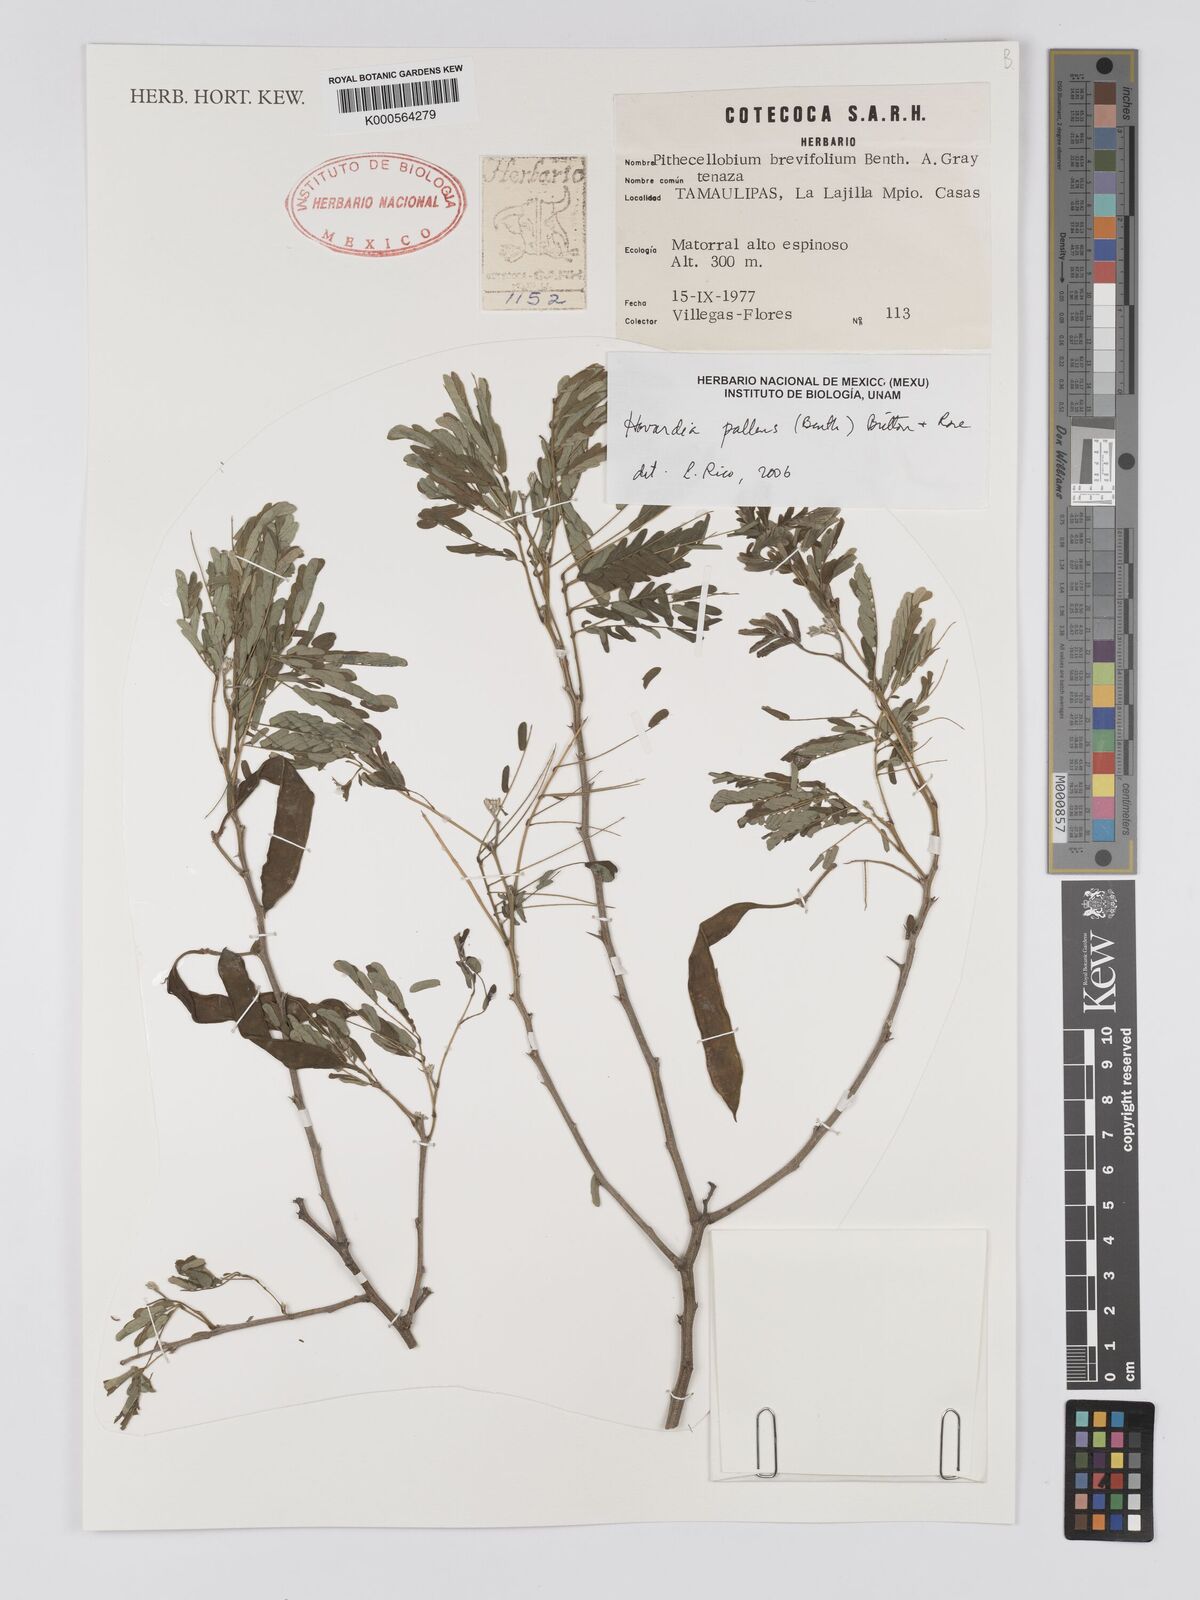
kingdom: Plantae
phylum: Tracheophyta
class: Magnoliopsida
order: Fabales
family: Fabaceae
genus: Havardia
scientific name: Havardia pallens
